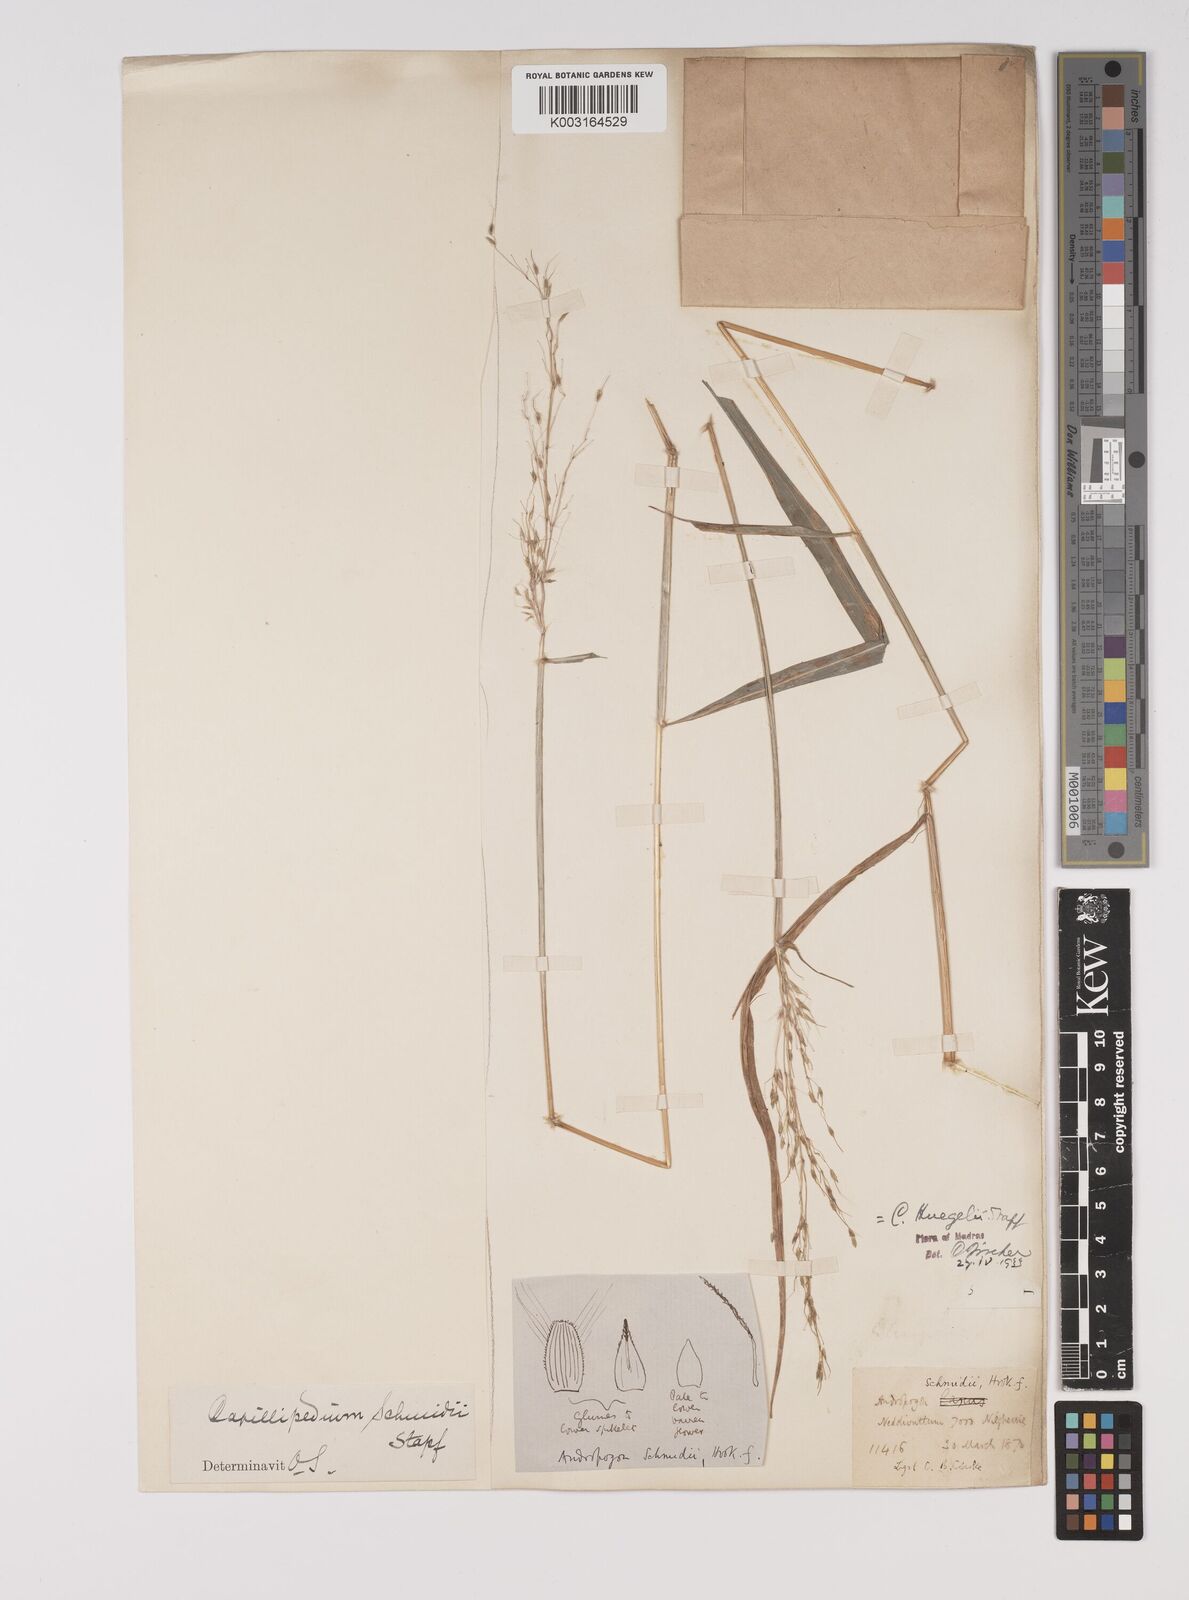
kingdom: Plantae
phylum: Tracheophyta
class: Liliopsida
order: Poales
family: Poaceae
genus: Capillipedium
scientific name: Capillipedium huegelii
